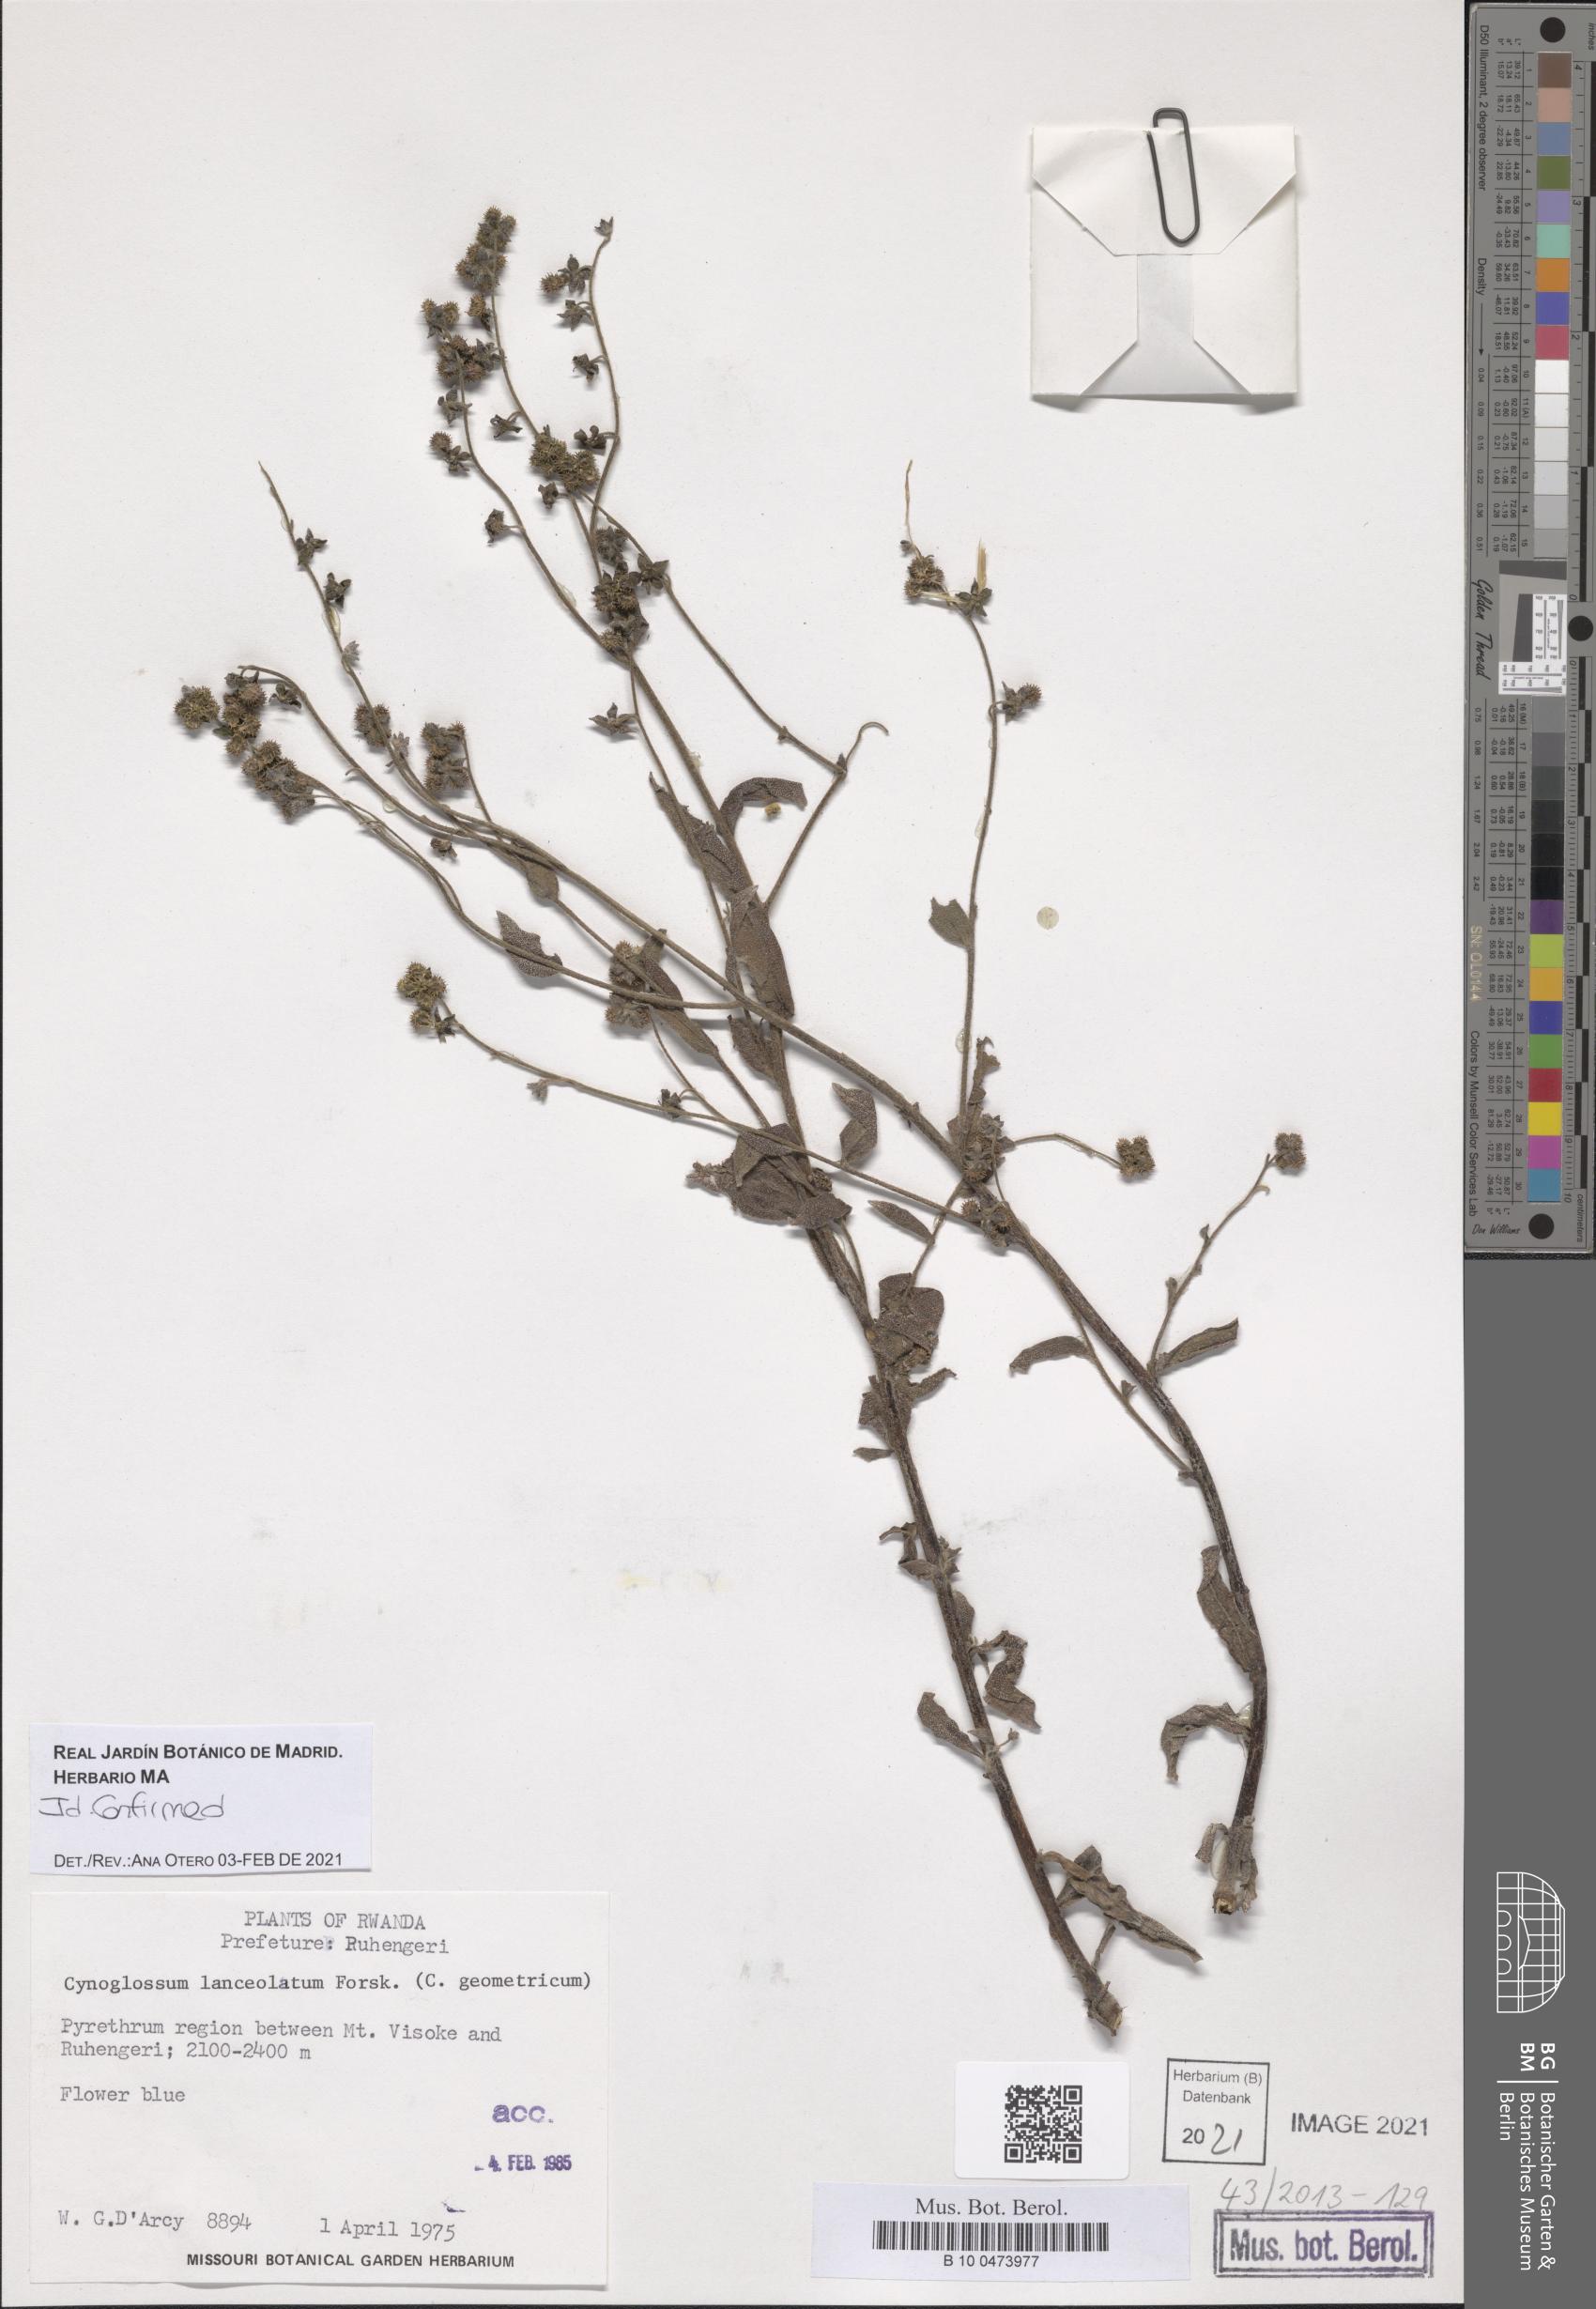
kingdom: Plantae
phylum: Tracheophyta
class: Magnoliopsida
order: Boraginales
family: Boraginaceae
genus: Paracynoglossum
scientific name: Paracynoglossum lanceolatum
